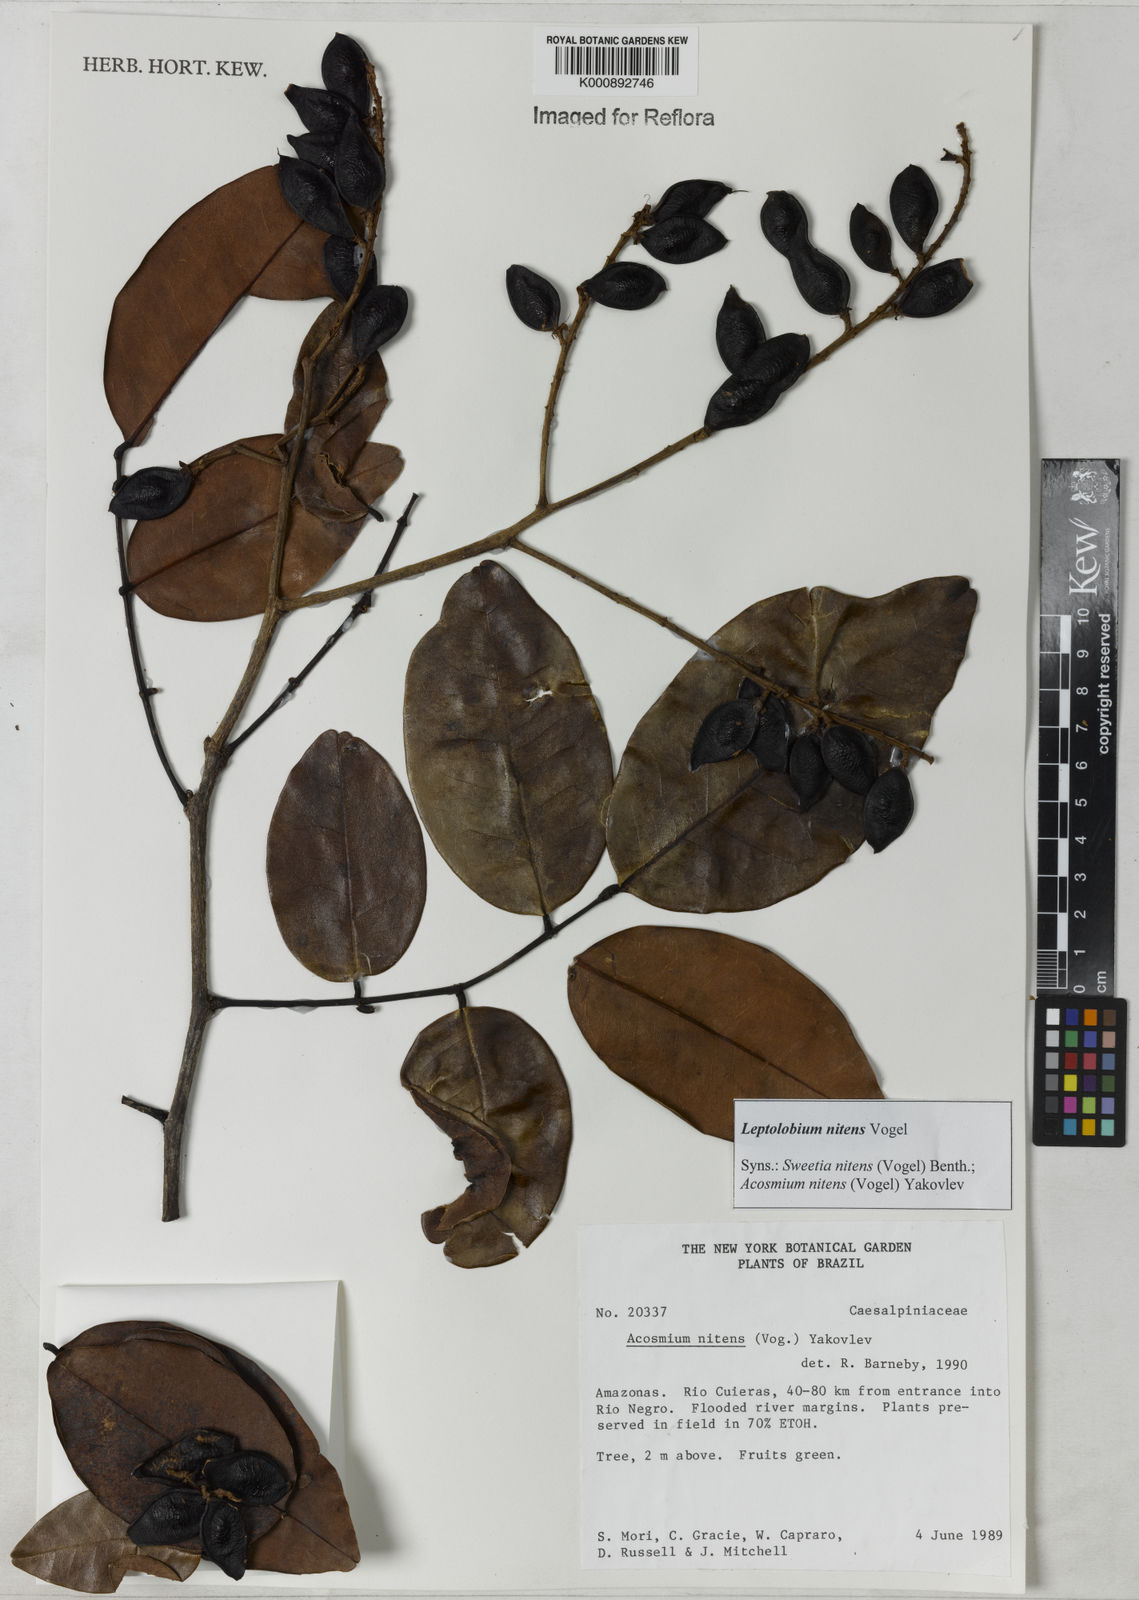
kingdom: Plantae
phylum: Tracheophyta
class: Magnoliopsida
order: Fabales
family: Fabaceae
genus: Leptolobium
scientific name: Leptolobium nitens
